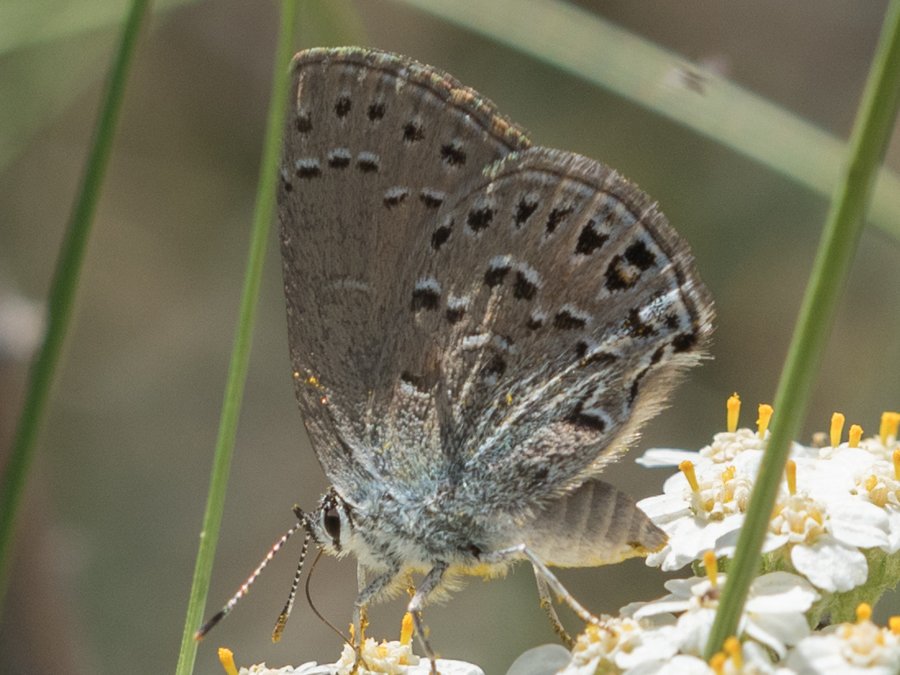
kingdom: Animalia
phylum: Arthropoda
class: Insecta
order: Lepidoptera
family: Lycaenidae
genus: Satyrium
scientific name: Satyrium behrii
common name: Behr's Hairstreak
